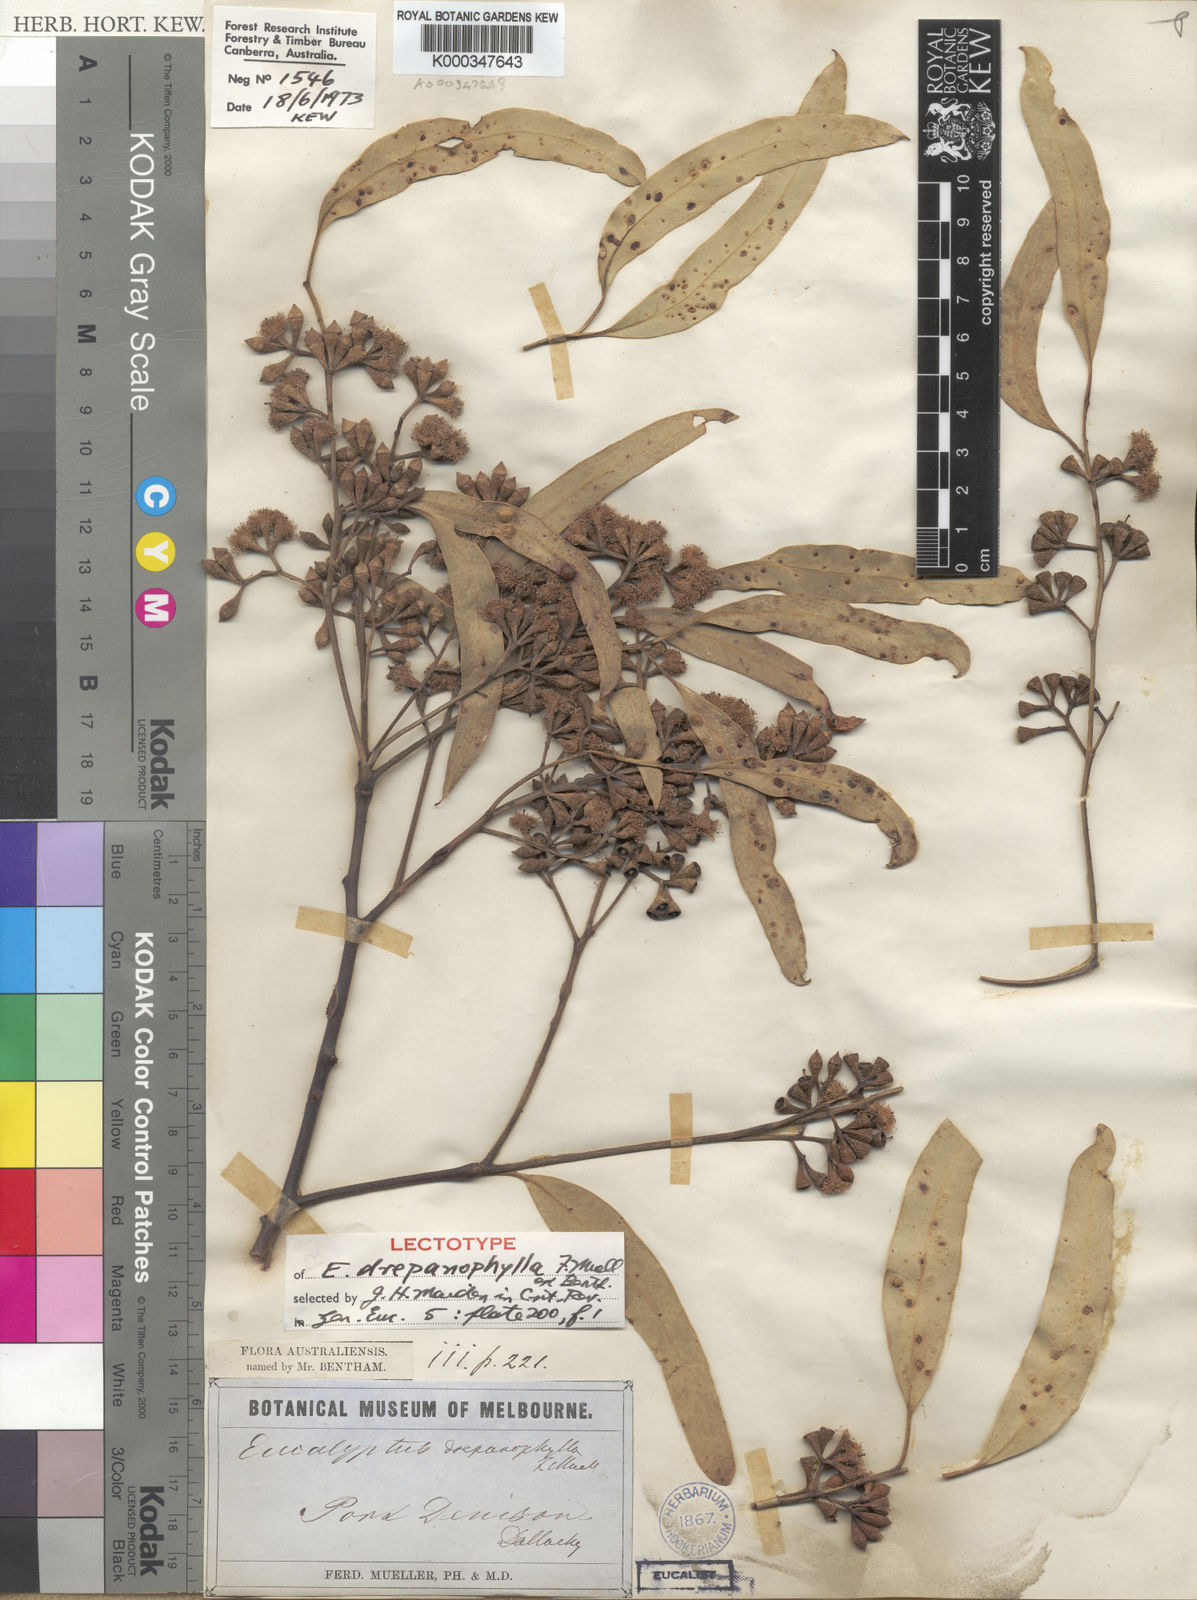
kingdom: Plantae
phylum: Tracheophyta
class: Magnoliopsida
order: Myrtales
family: Myrtaceae
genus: Eucalyptus
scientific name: Eucalyptus drepanophylla
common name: Queensland grey ironbark
